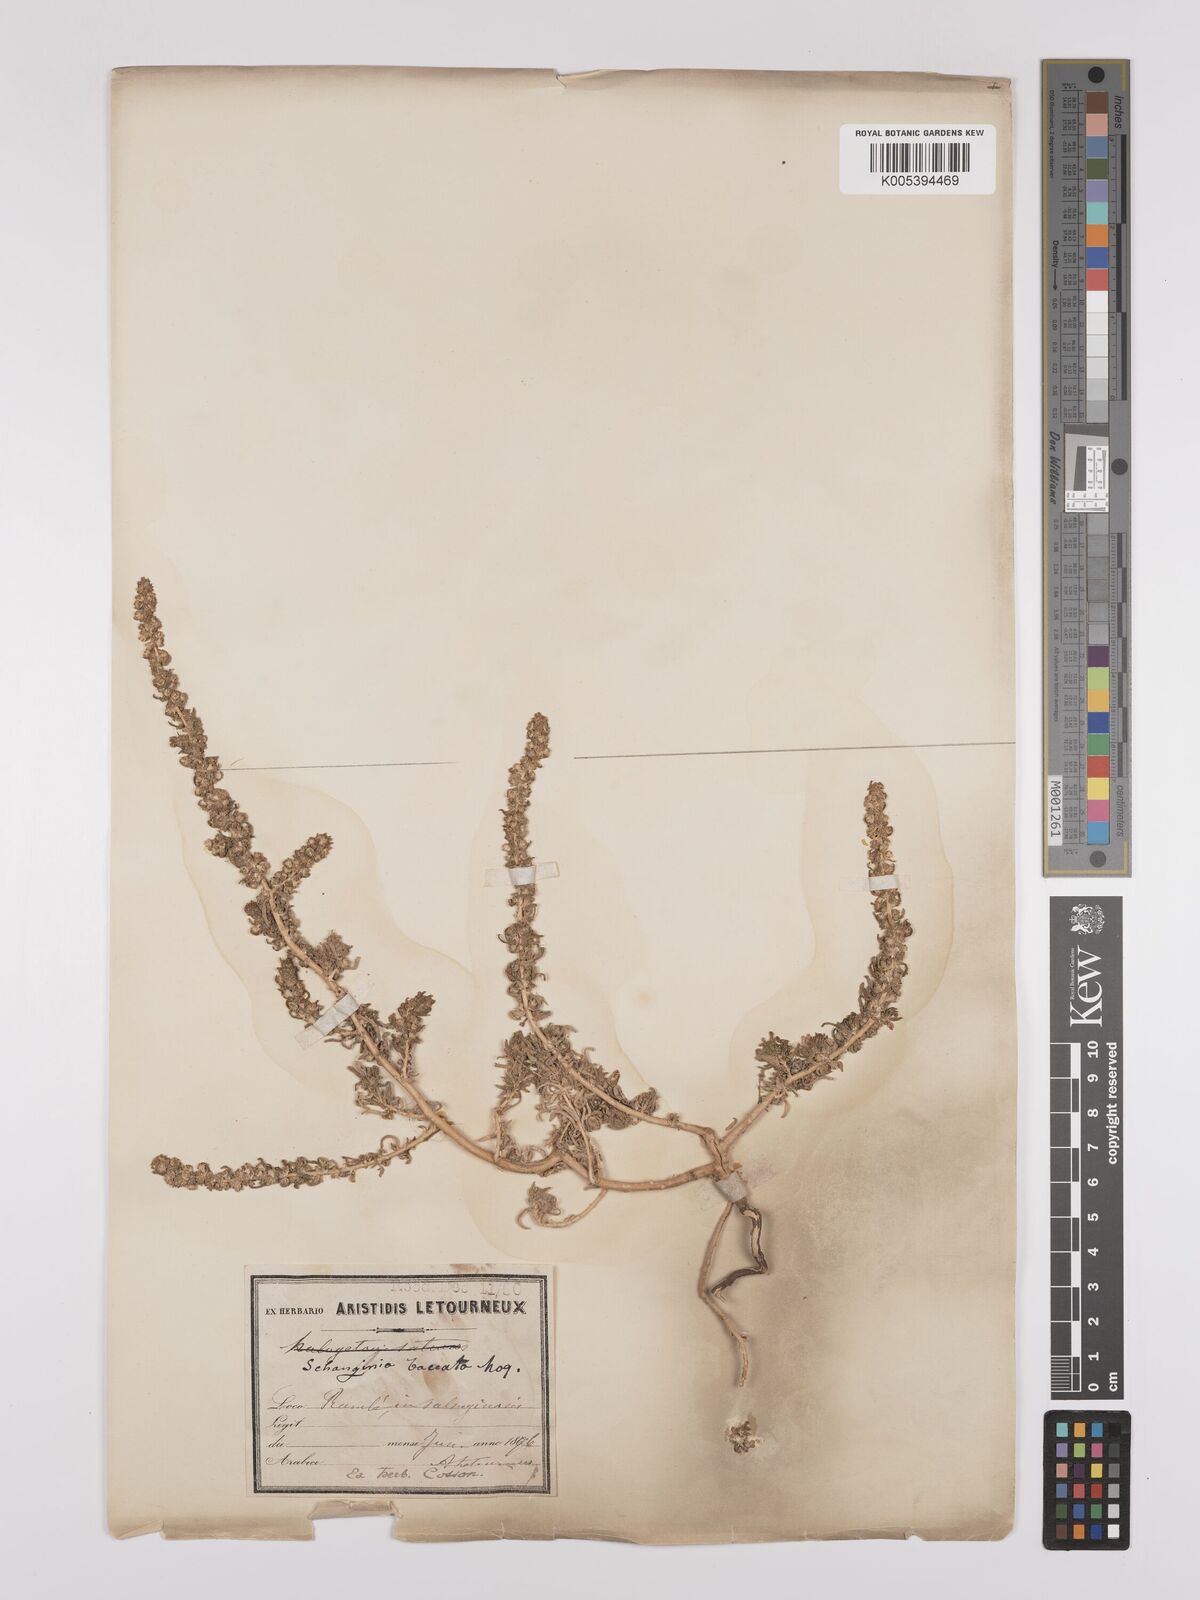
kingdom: Plantae
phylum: Tracheophyta
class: Magnoliopsida
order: Caryophyllales
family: Amaranthaceae
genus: Suaeda
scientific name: Suaeda aegyptiaca
